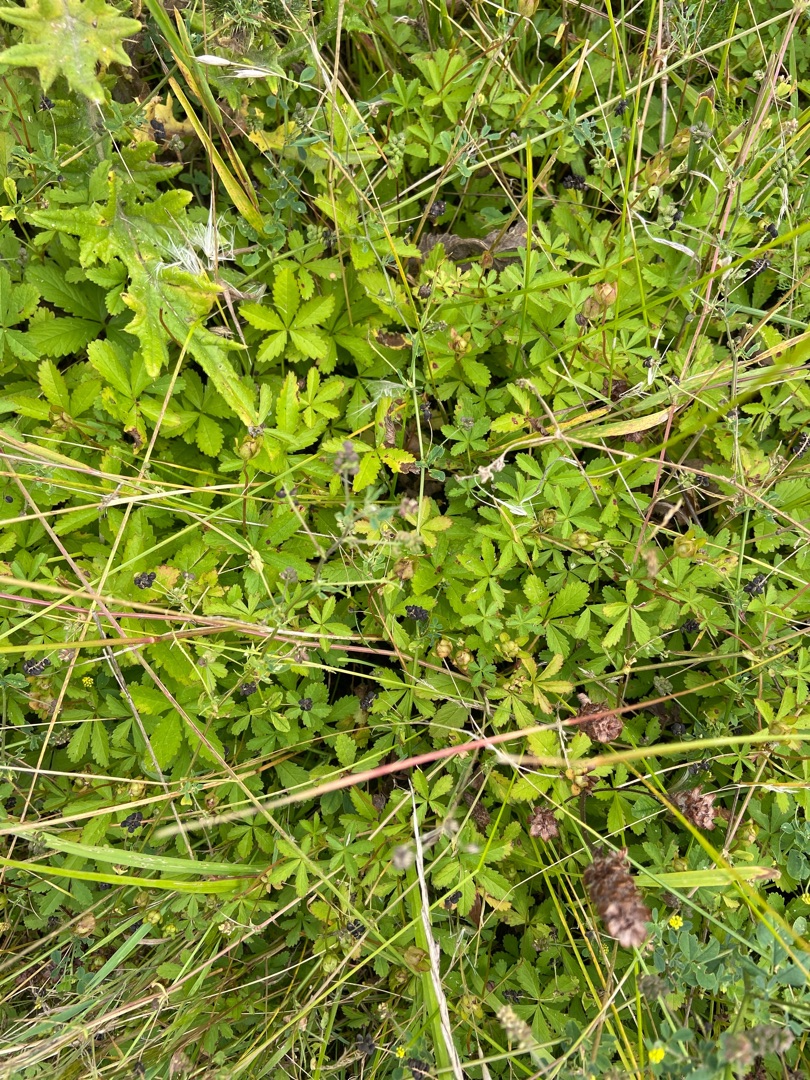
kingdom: Plantae
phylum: Tracheophyta
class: Magnoliopsida
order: Rosales
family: Rosaceae
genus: Potentilla
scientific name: Potentilla reptans
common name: Krybende potentil
